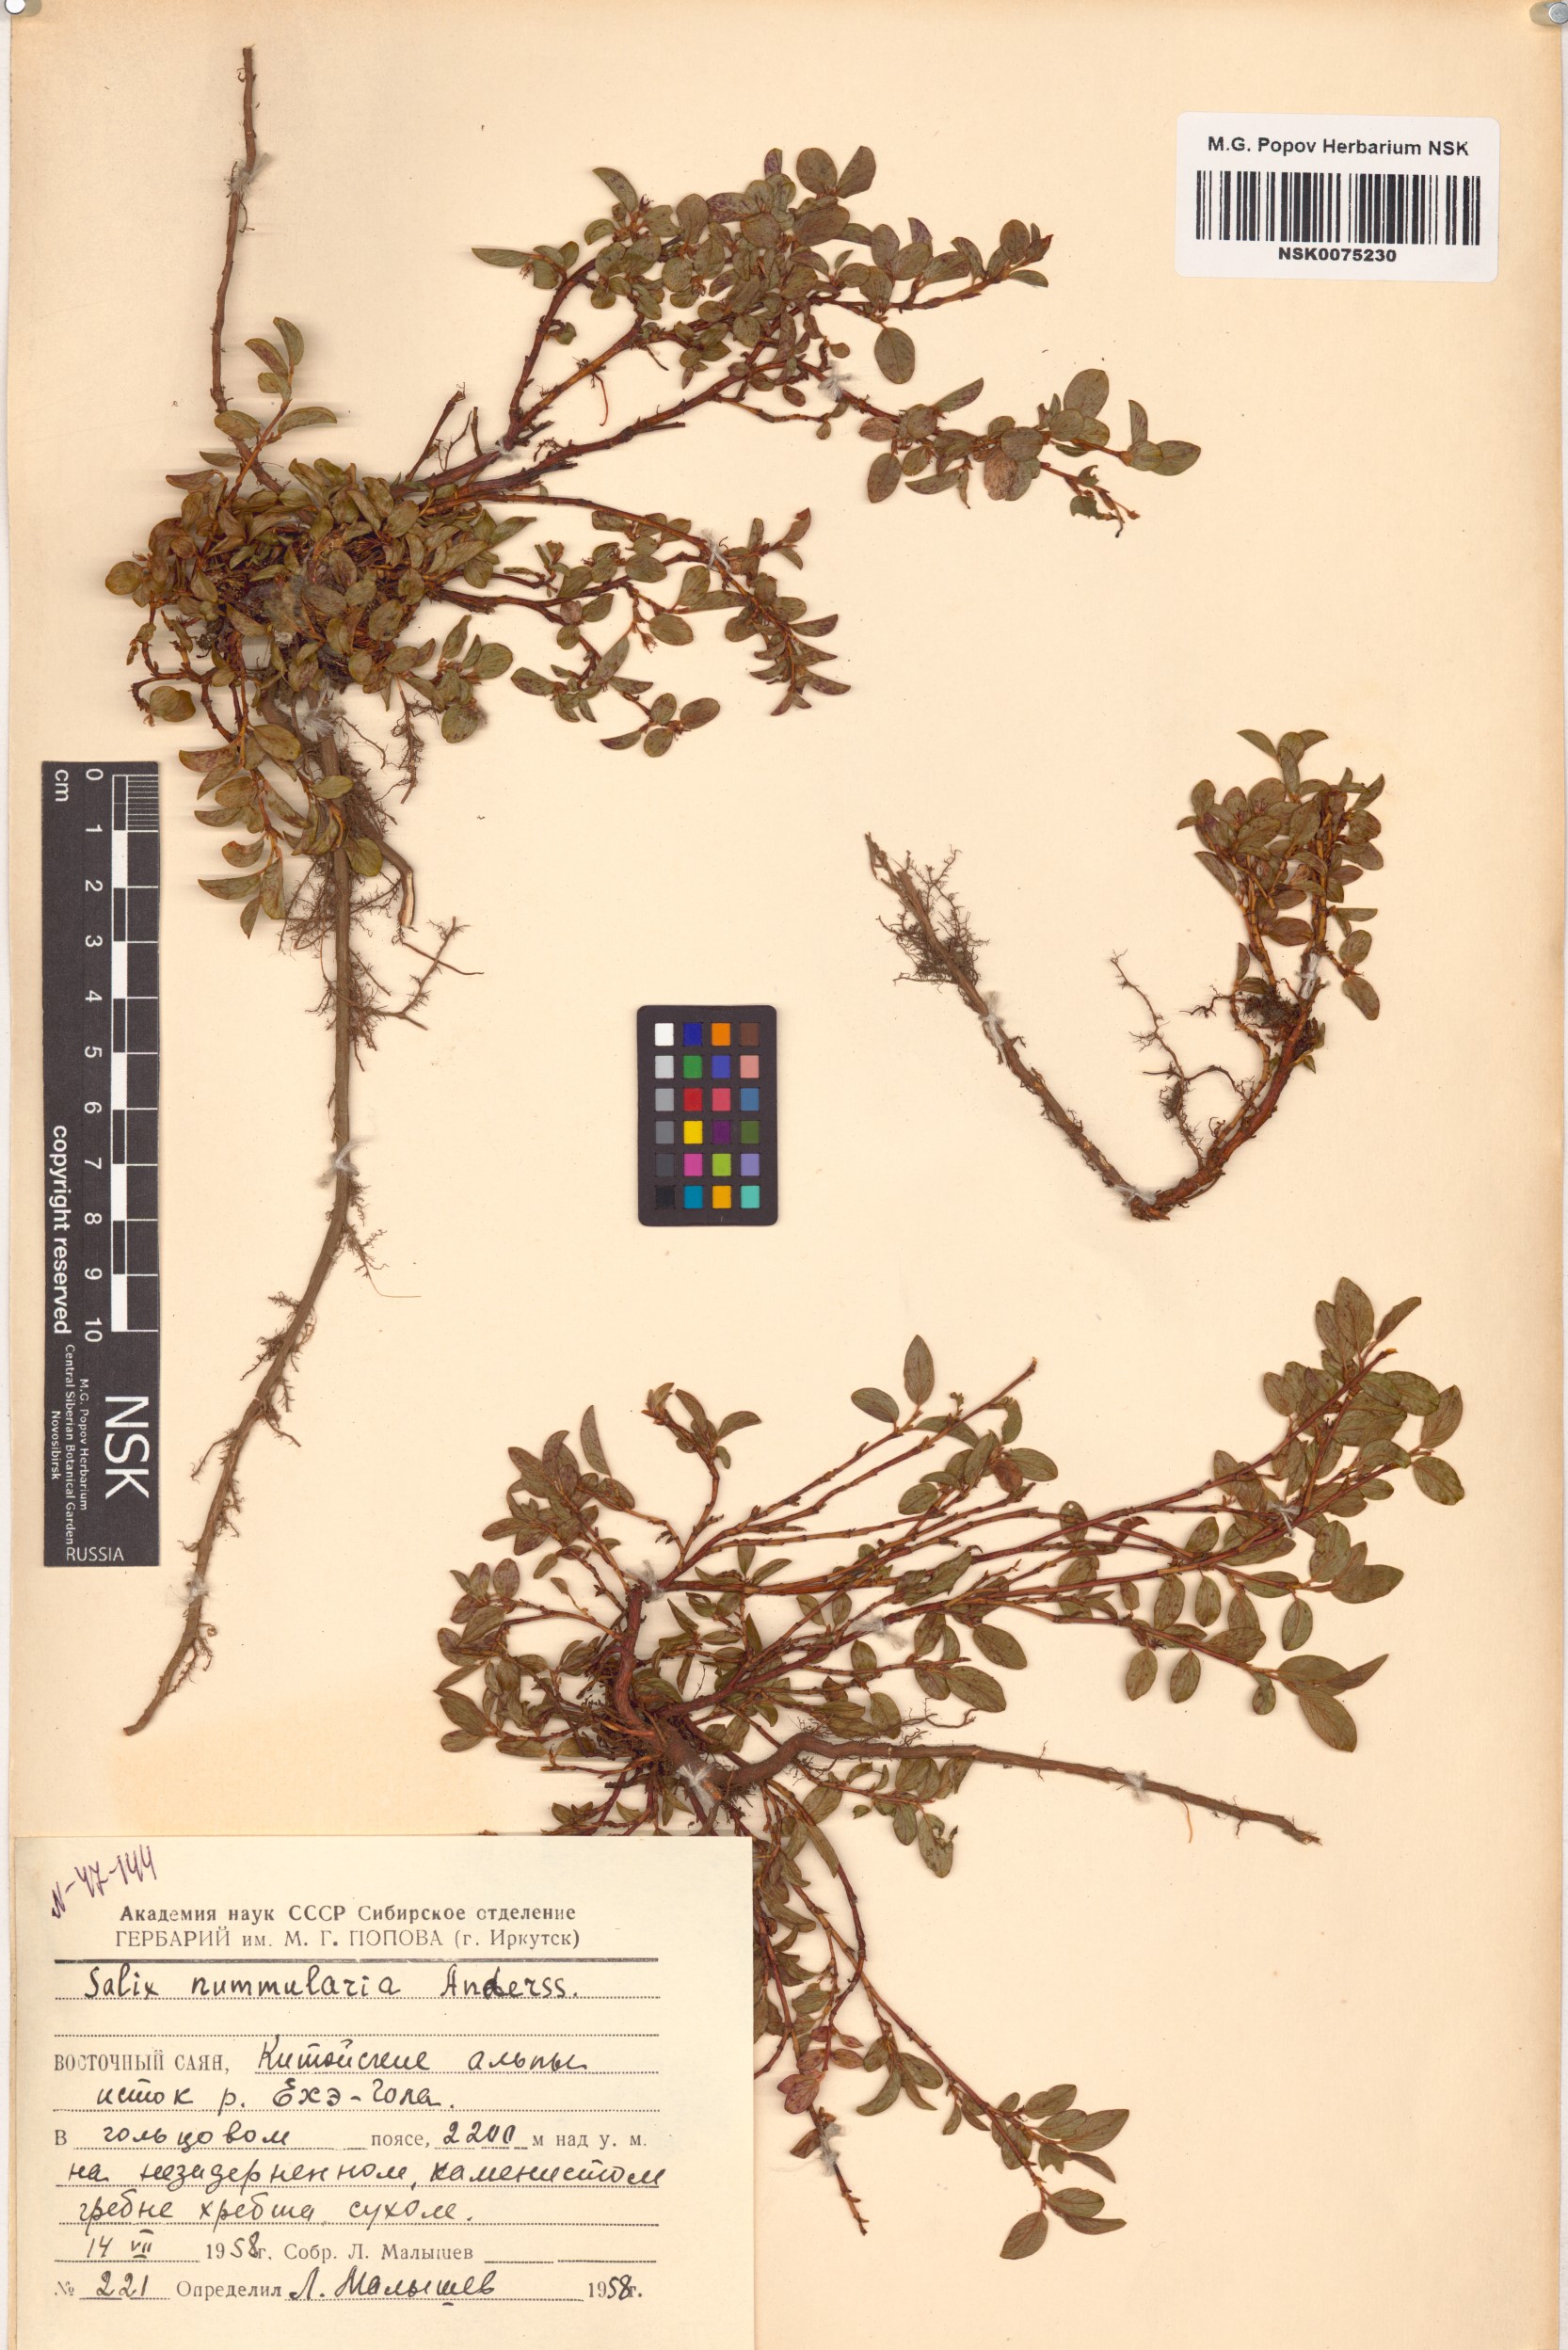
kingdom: Plantae
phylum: Tracheophyta
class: Magnoliopsida
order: Malpighiales
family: Salicaceae
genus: Salix
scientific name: Salix nummularia
